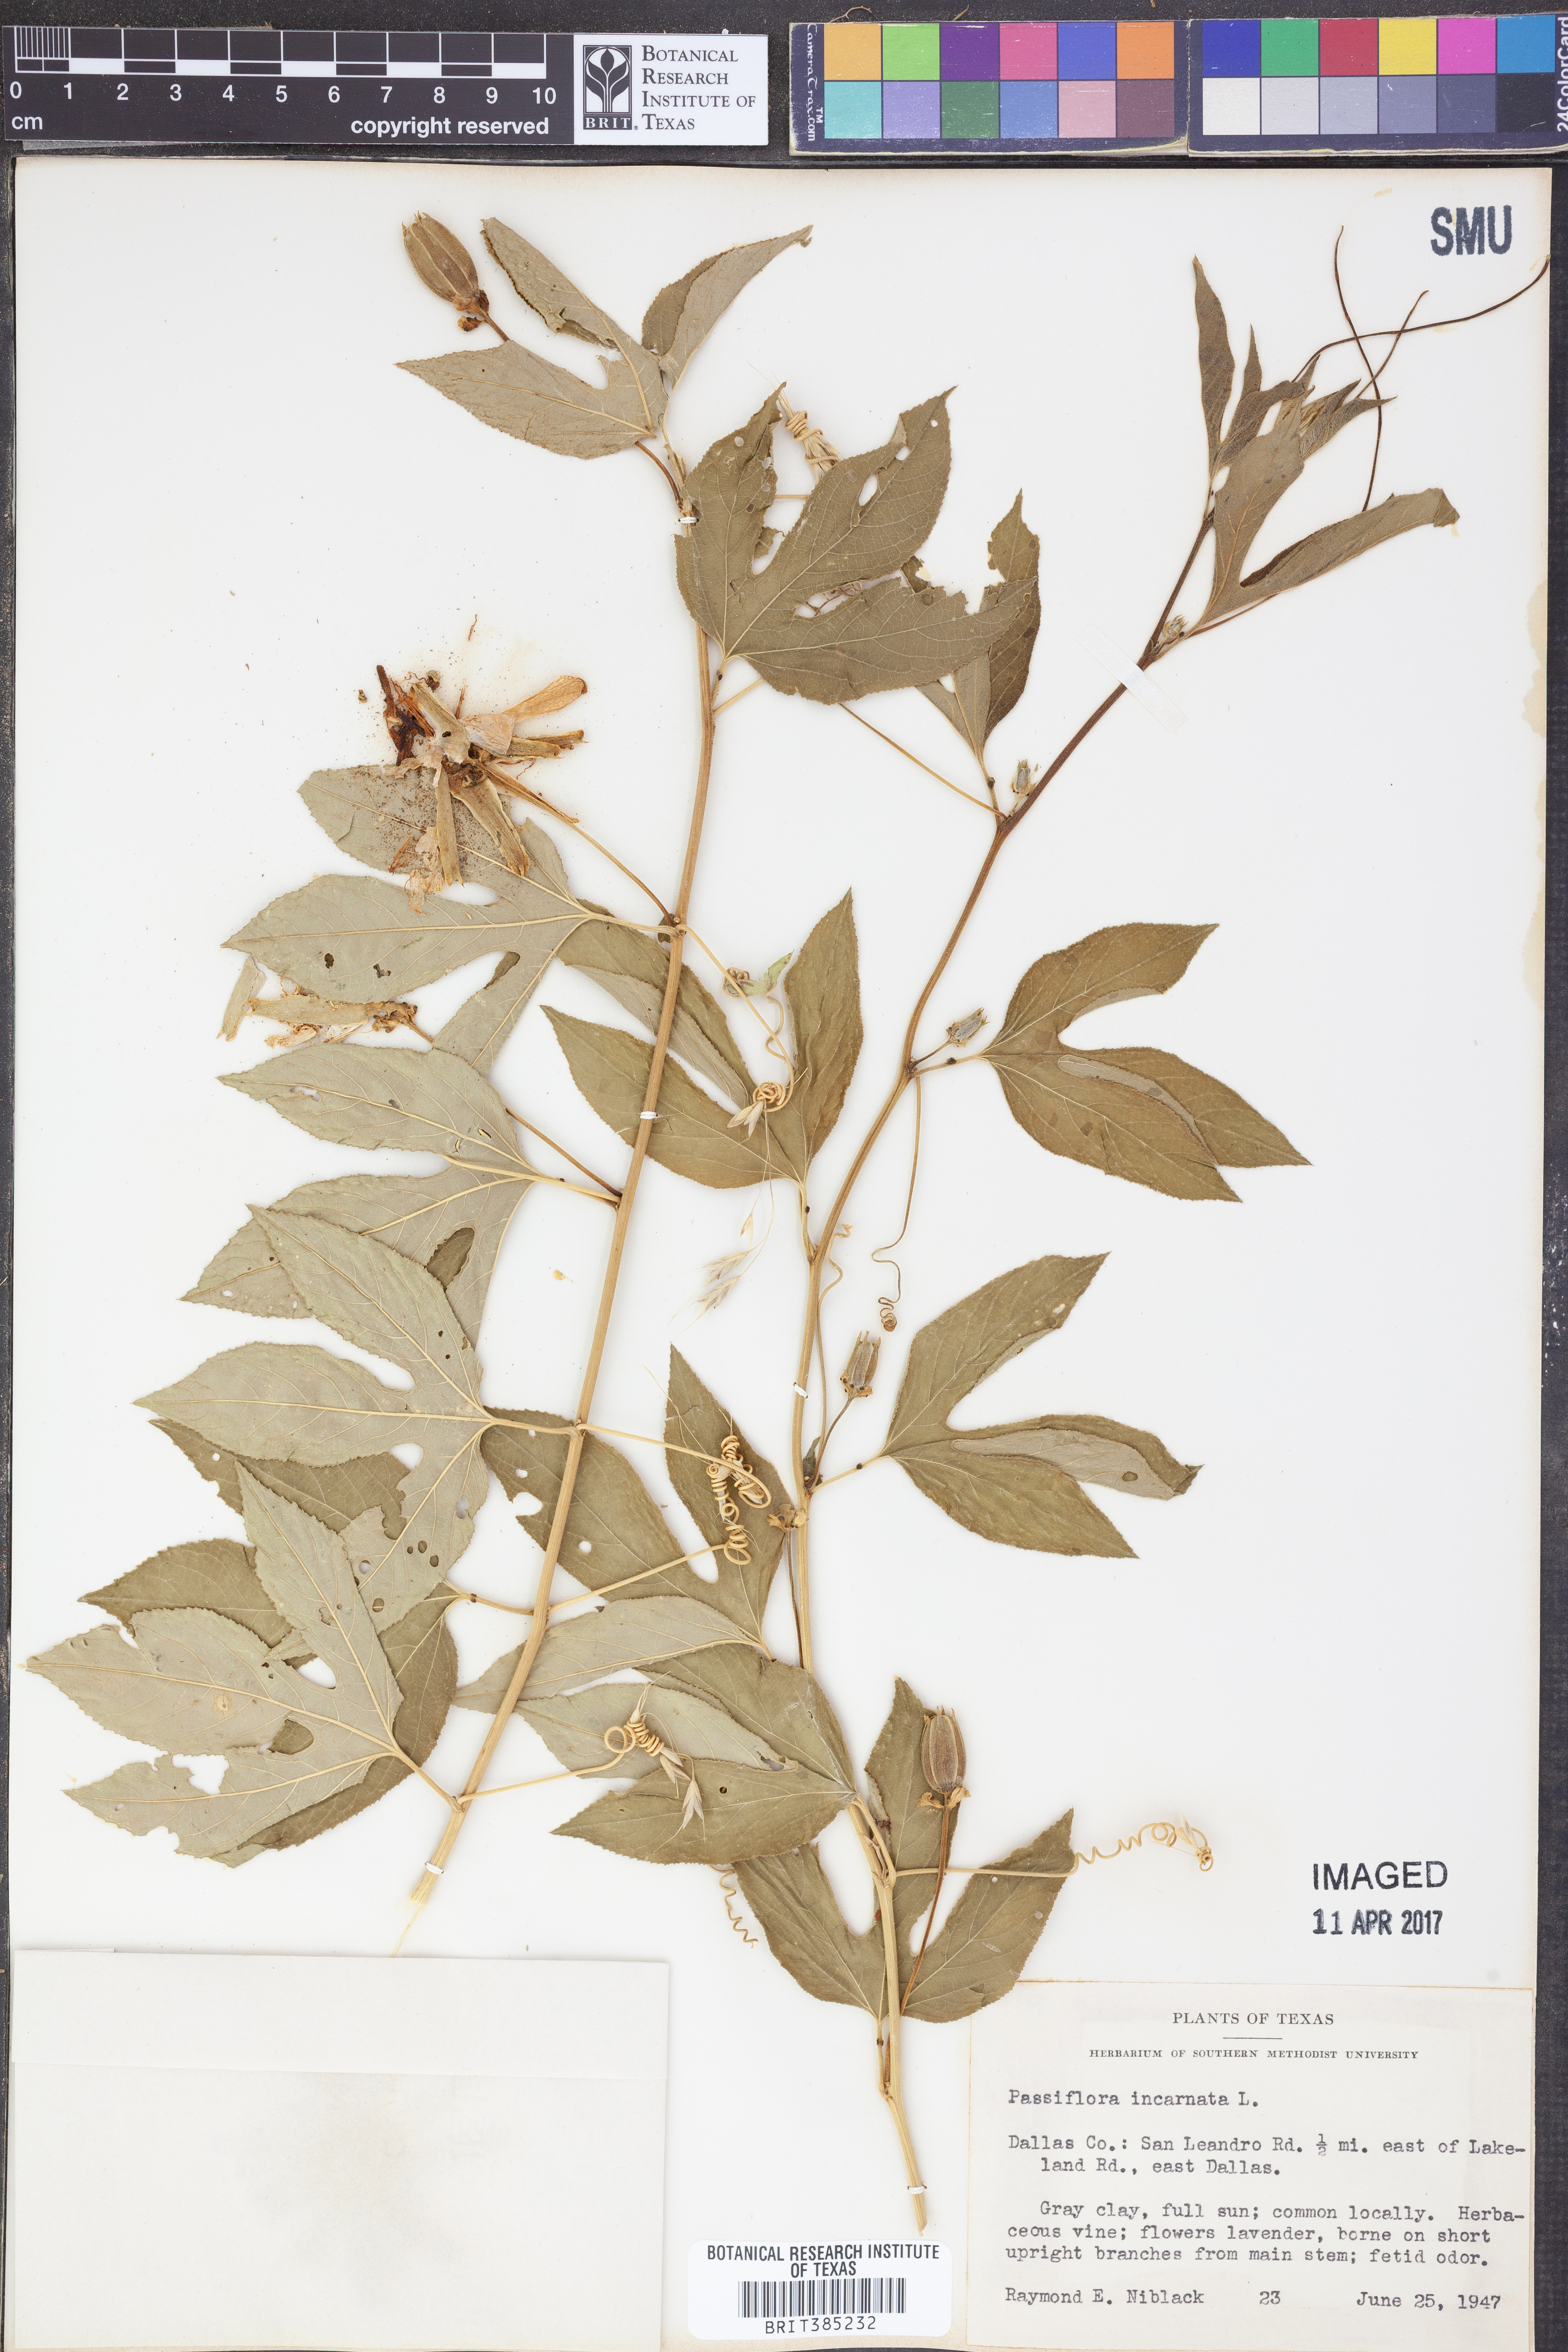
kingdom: Plantae
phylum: Tracheophyta
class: Magnoliopsida
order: Malpighiales
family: Passifloraceae
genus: Passiflora
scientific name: Passiflora incarnata
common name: Apricot-vine
